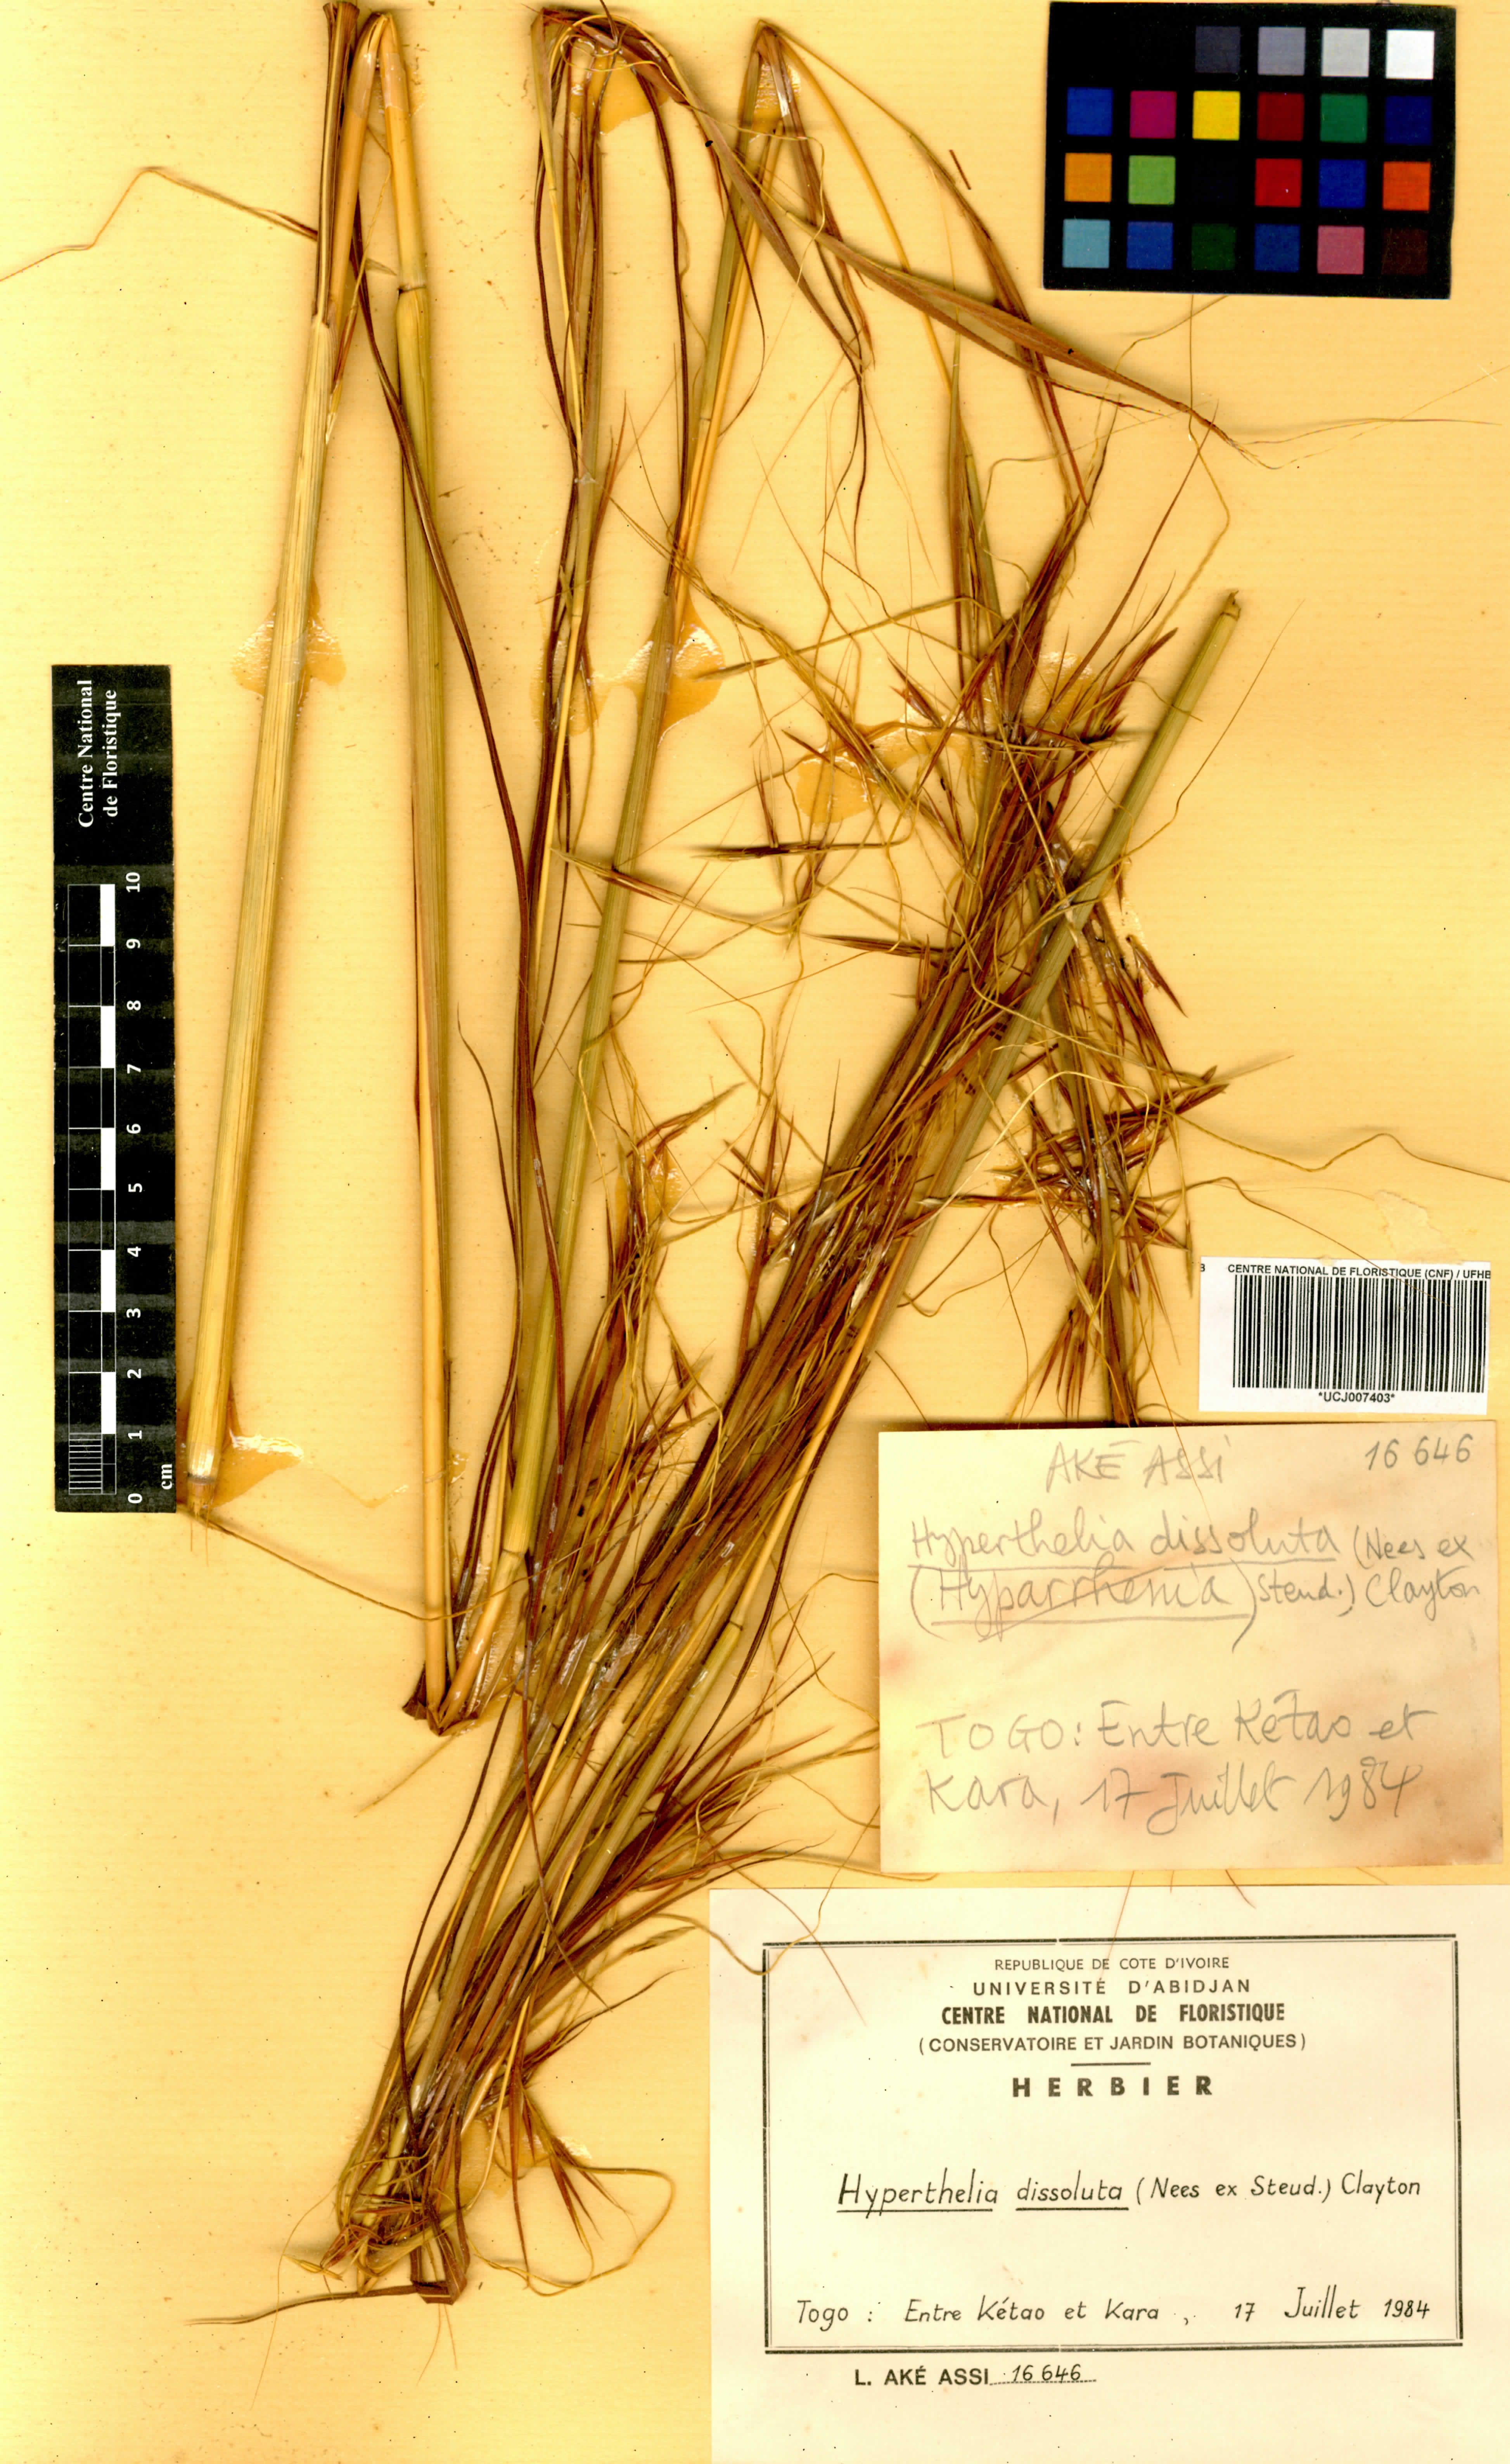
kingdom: Plantae
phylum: Tracheophyta
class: Liliopsida
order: Poales
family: Poaceae
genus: Hyperthelia
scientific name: Hyperthelia dissoluta
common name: Yellow thatching grass
